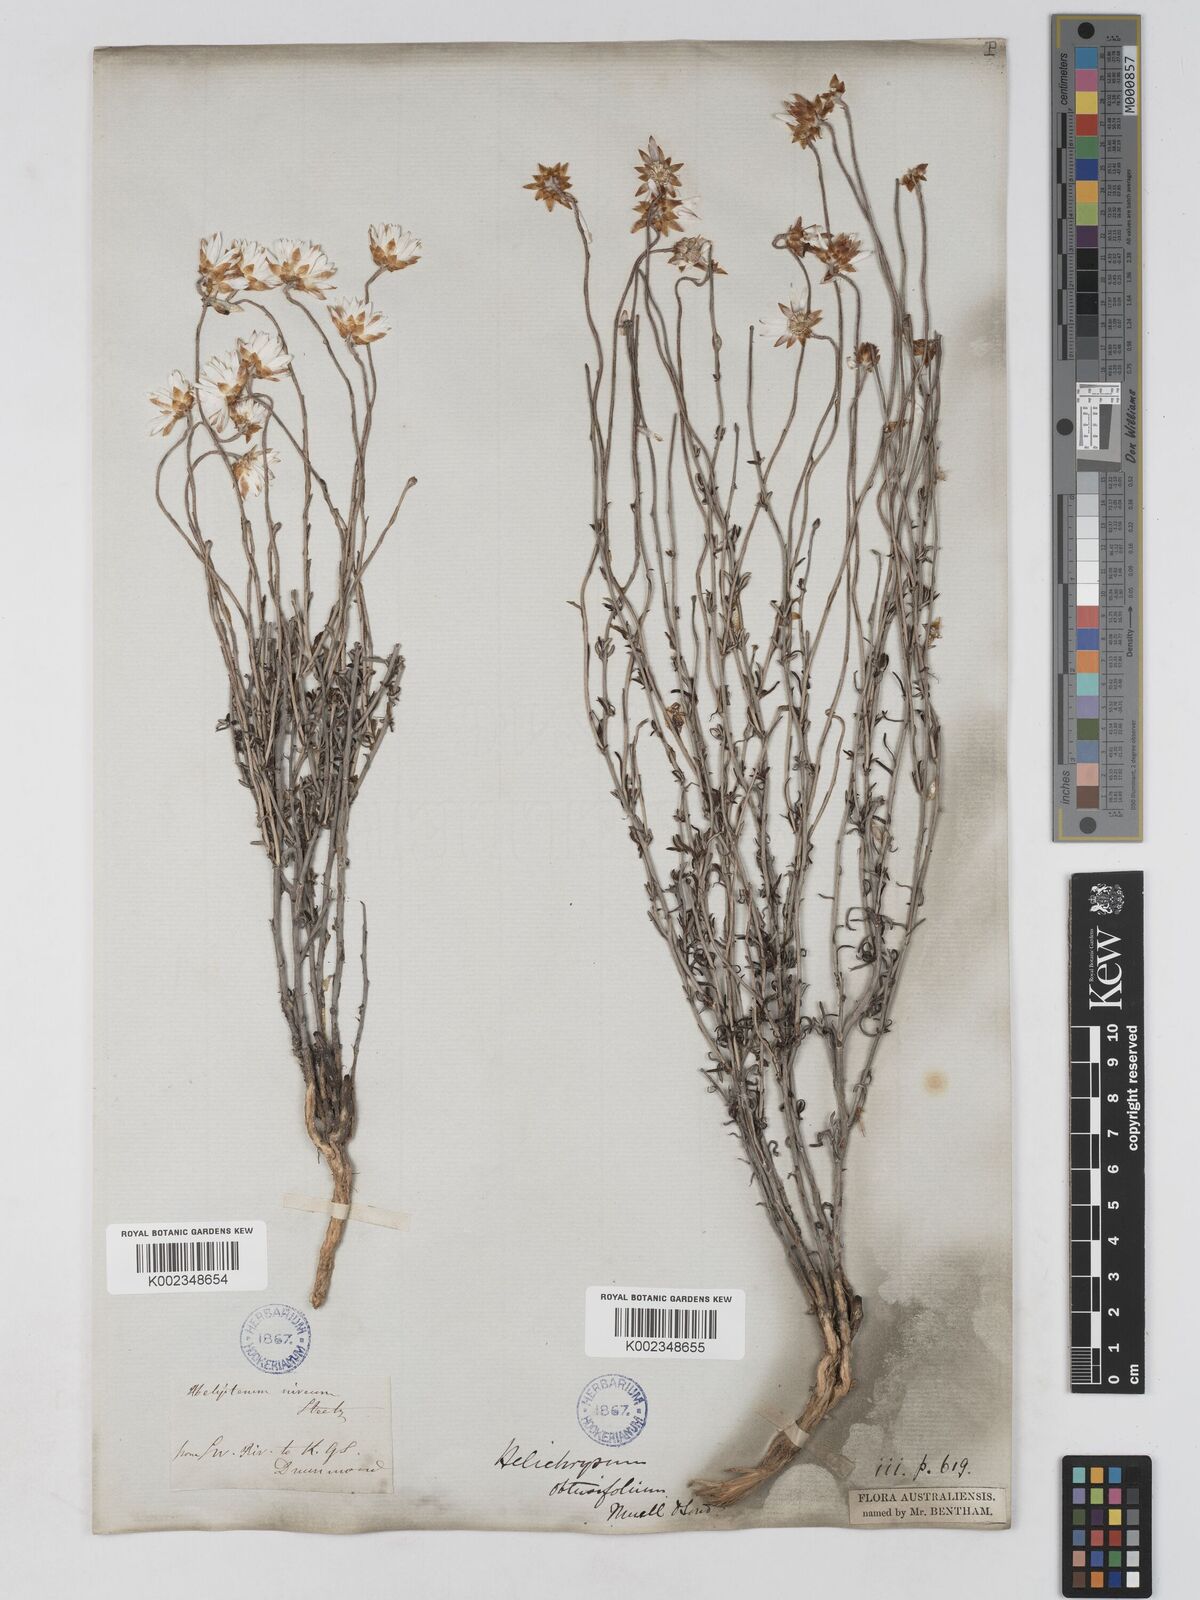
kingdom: Plantae
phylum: Tracheophyta
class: Magnoliopsida
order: Asterales
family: Asteraceae
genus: Argentipallium
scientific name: Argentipallium obtusifolium
